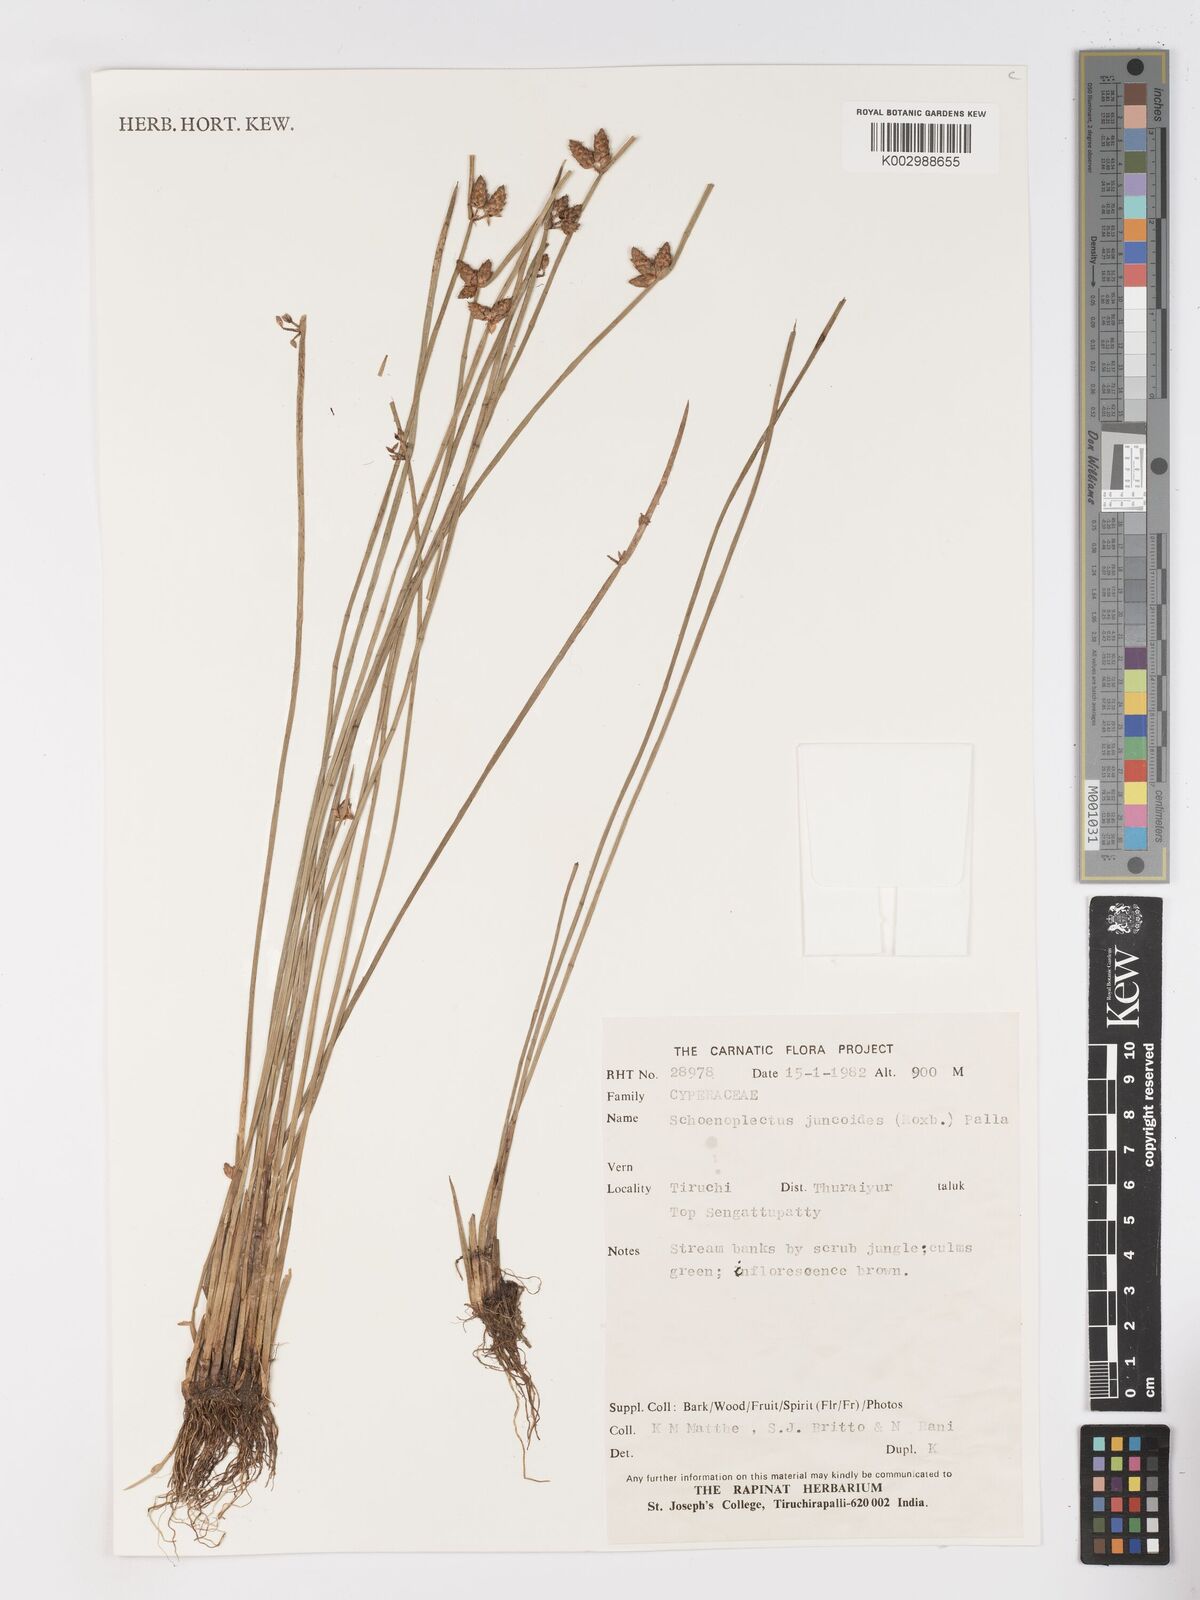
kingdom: Plantae
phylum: Tracheophyta
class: Liliopsida
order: Poales
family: Cyperaceae
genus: Schoenoplectiella
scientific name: Schoenoplectiella juncoides
